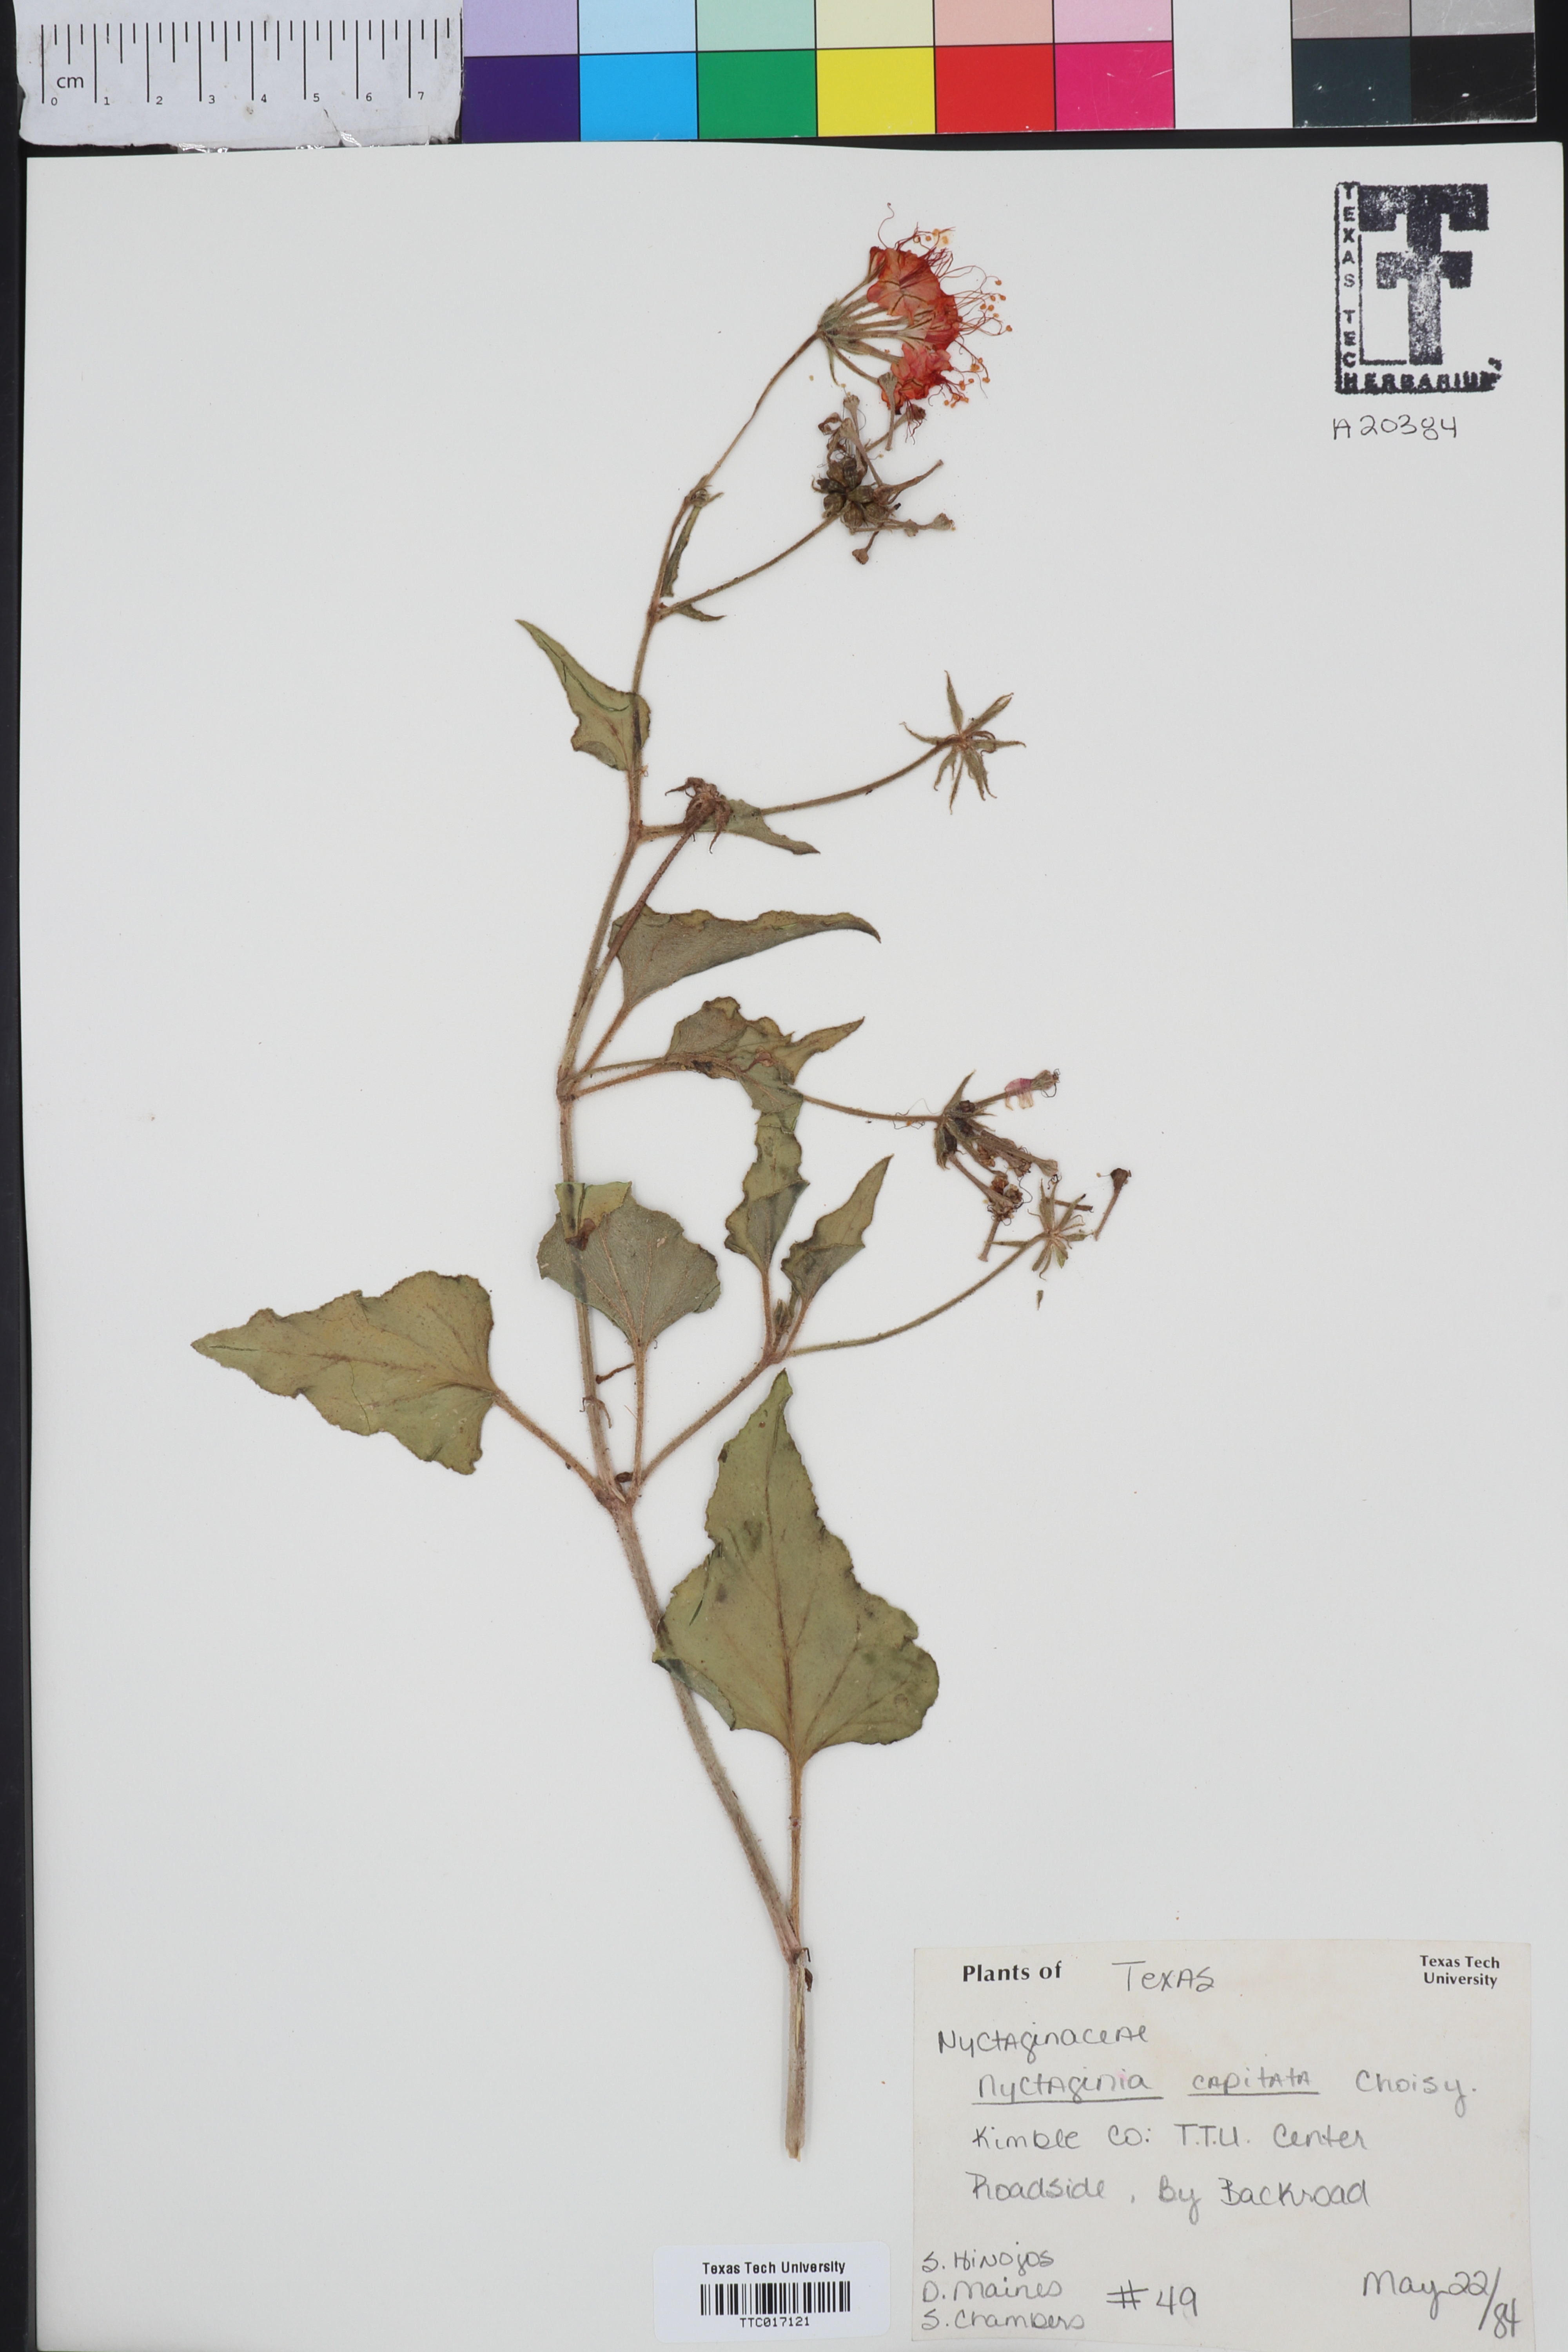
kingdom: Plantae
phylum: Tracheophyta
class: Magnoliopsida
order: Caryophyllales
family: Nyctaginaceae
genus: Nyctaginia
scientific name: Nyctaginia capitata
